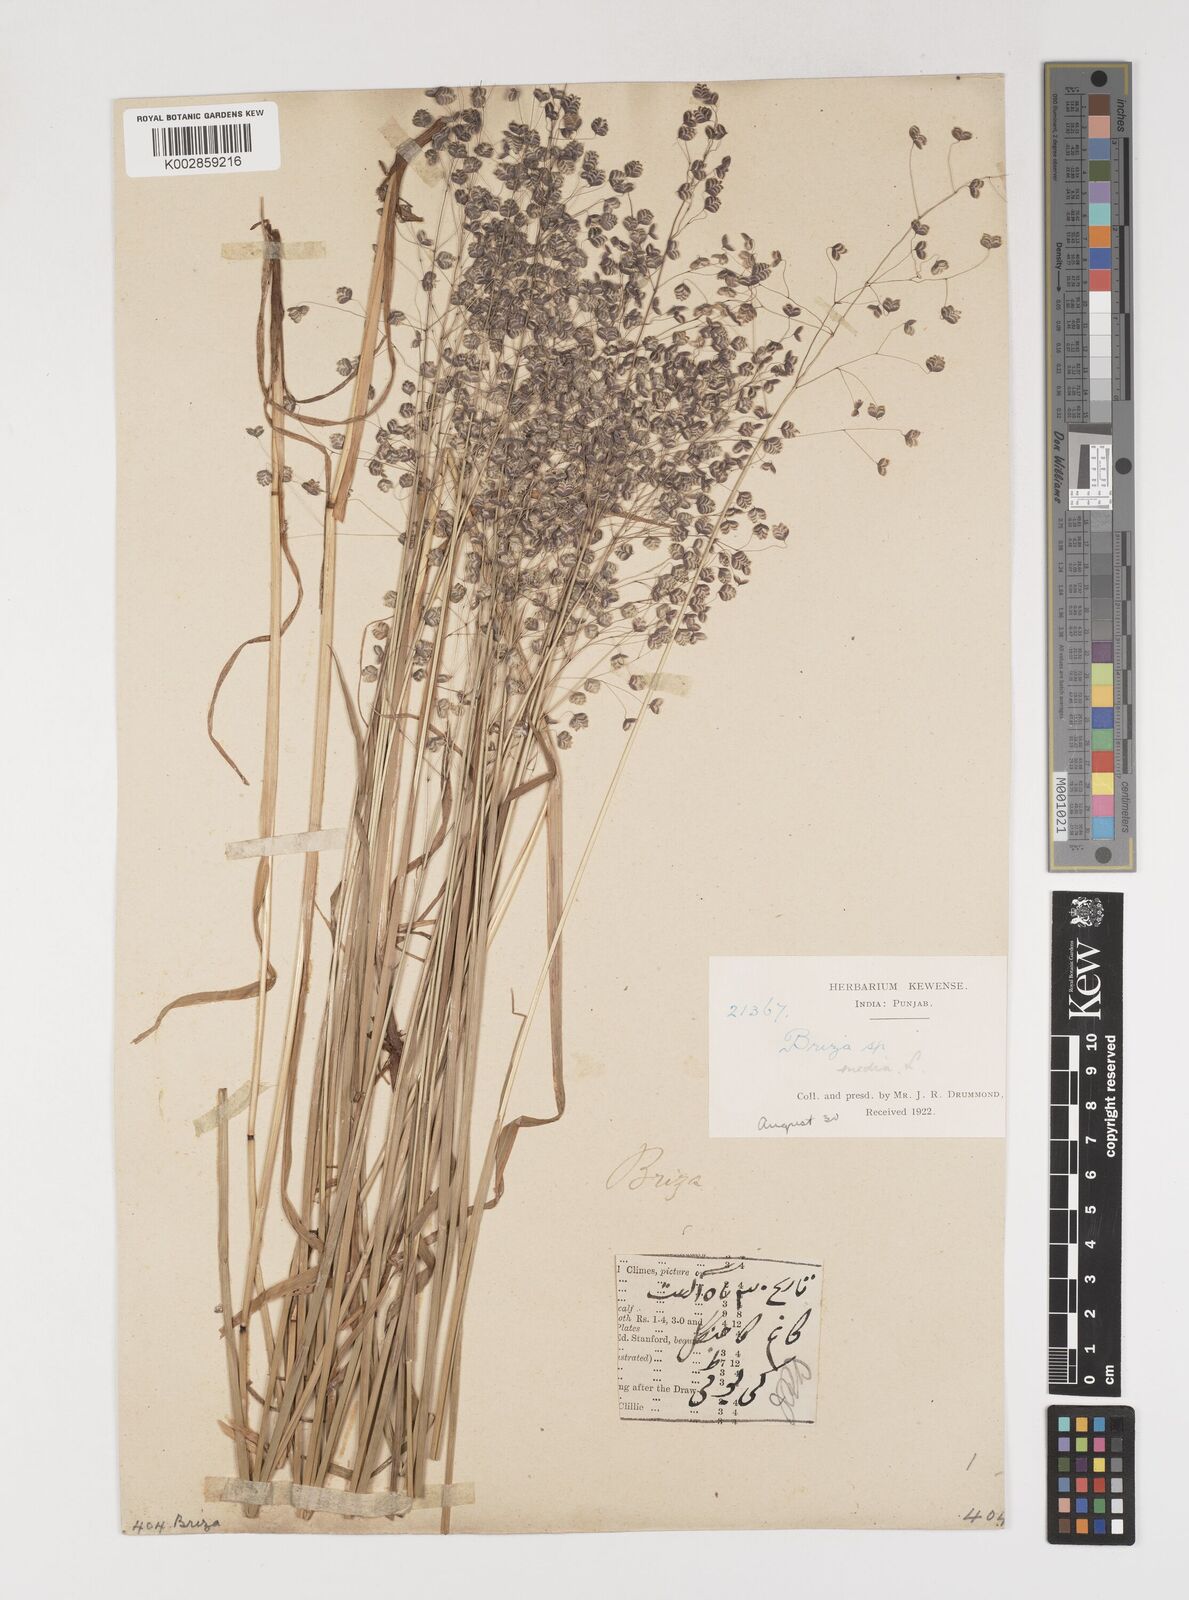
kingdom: Plantae
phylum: Tracheophyta
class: Liliopsida
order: Poales
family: Poaceae
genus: Briza
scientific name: Briza media
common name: Quaking grass
